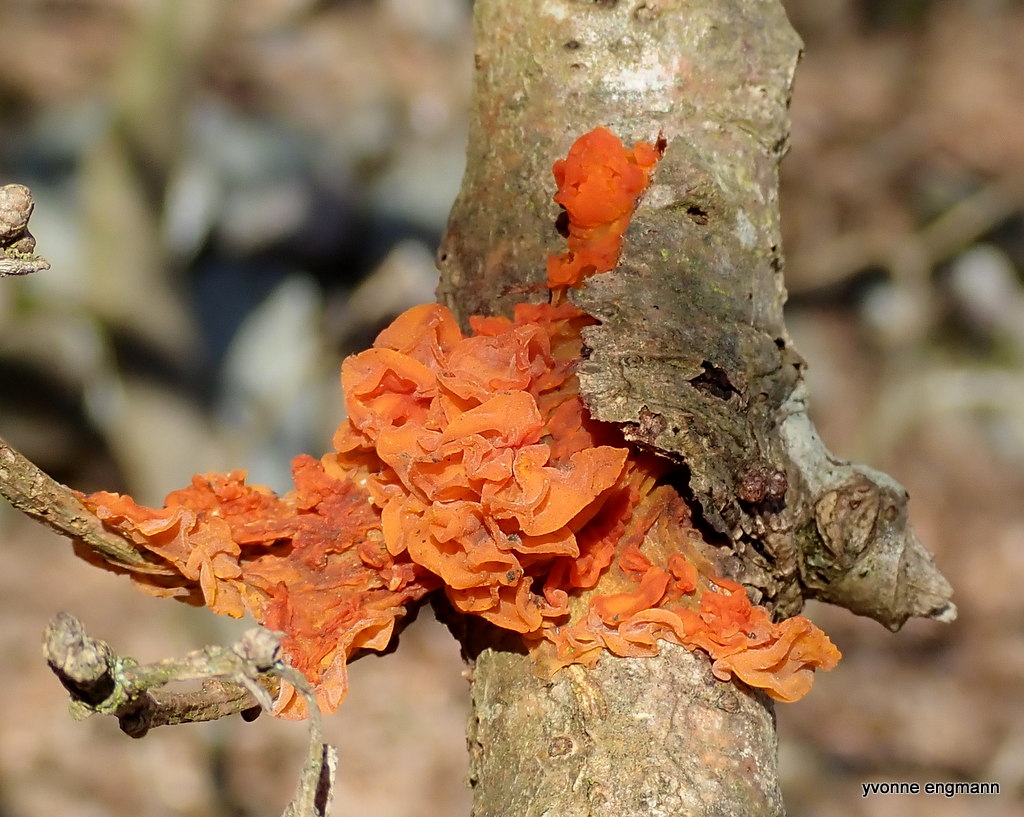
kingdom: Fungi
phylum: Basidiomycota
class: Tremellomycetes
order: Tremellales
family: Tremellaceae
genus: Tremella
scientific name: Tremella mesenterica
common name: gul bævresvamp
